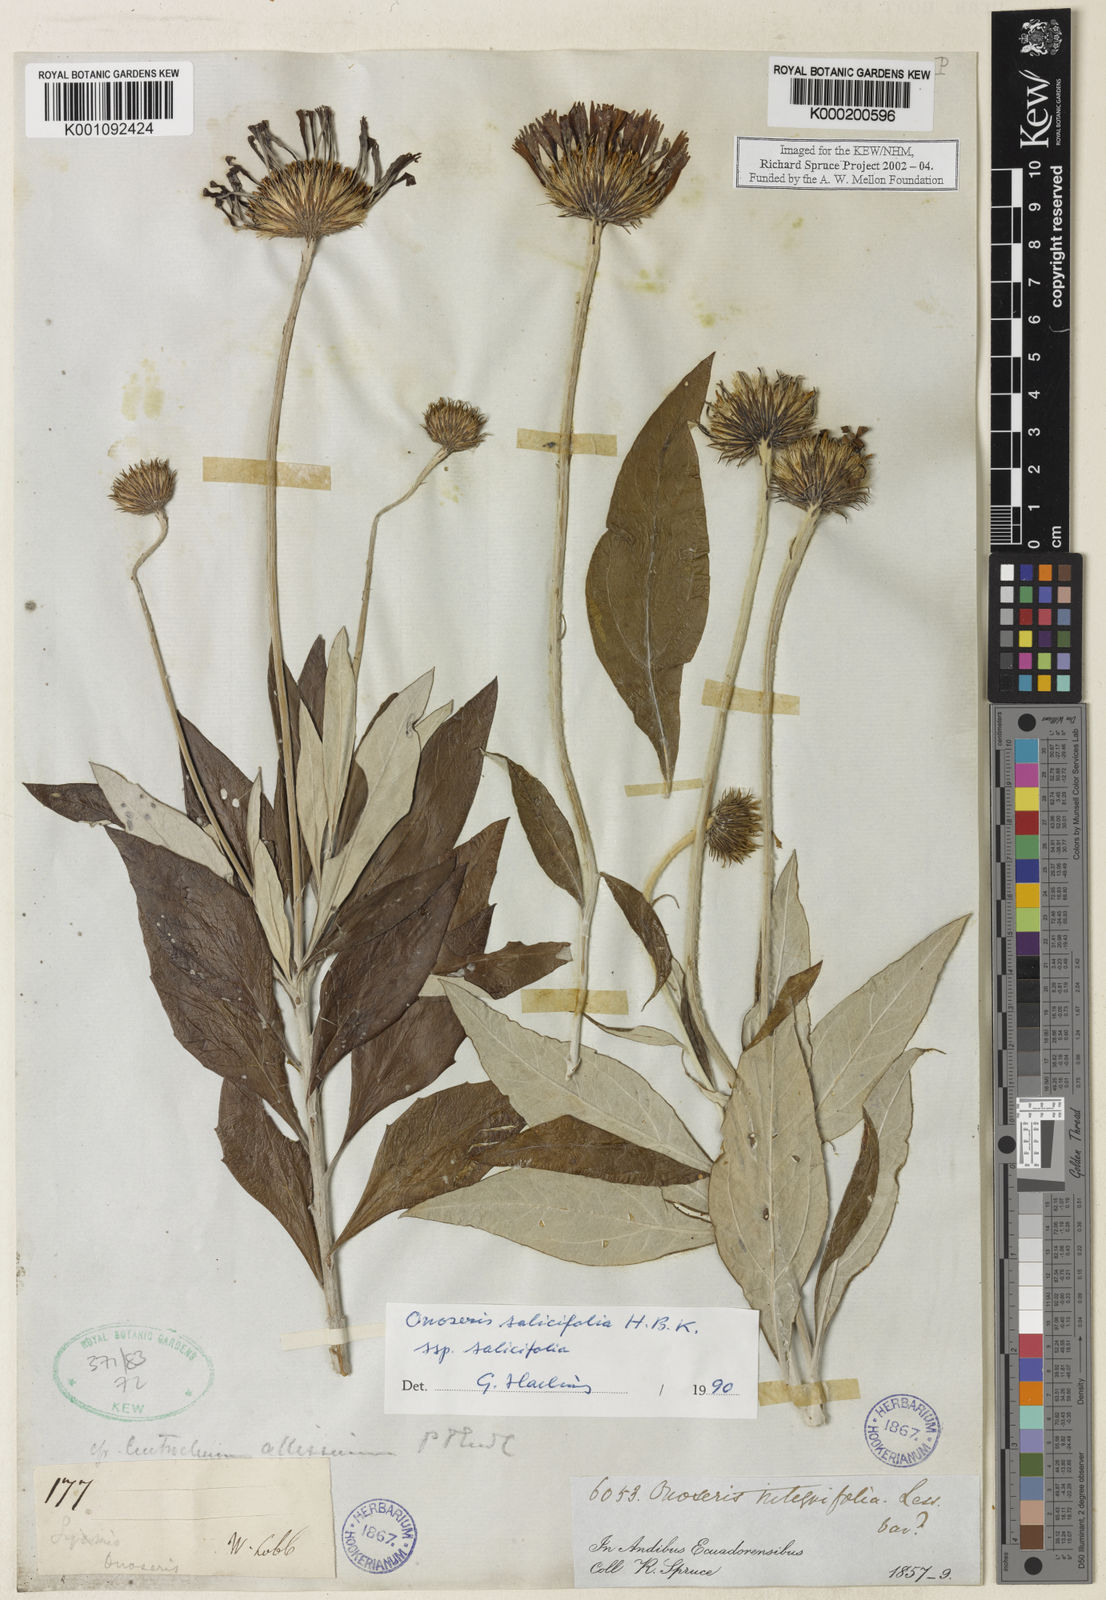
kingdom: Plantae
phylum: Tracheophyta
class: Magnoliopsida
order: Asterales
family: Asteraceae
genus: Onoseris
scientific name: Onoseris salicifolia
